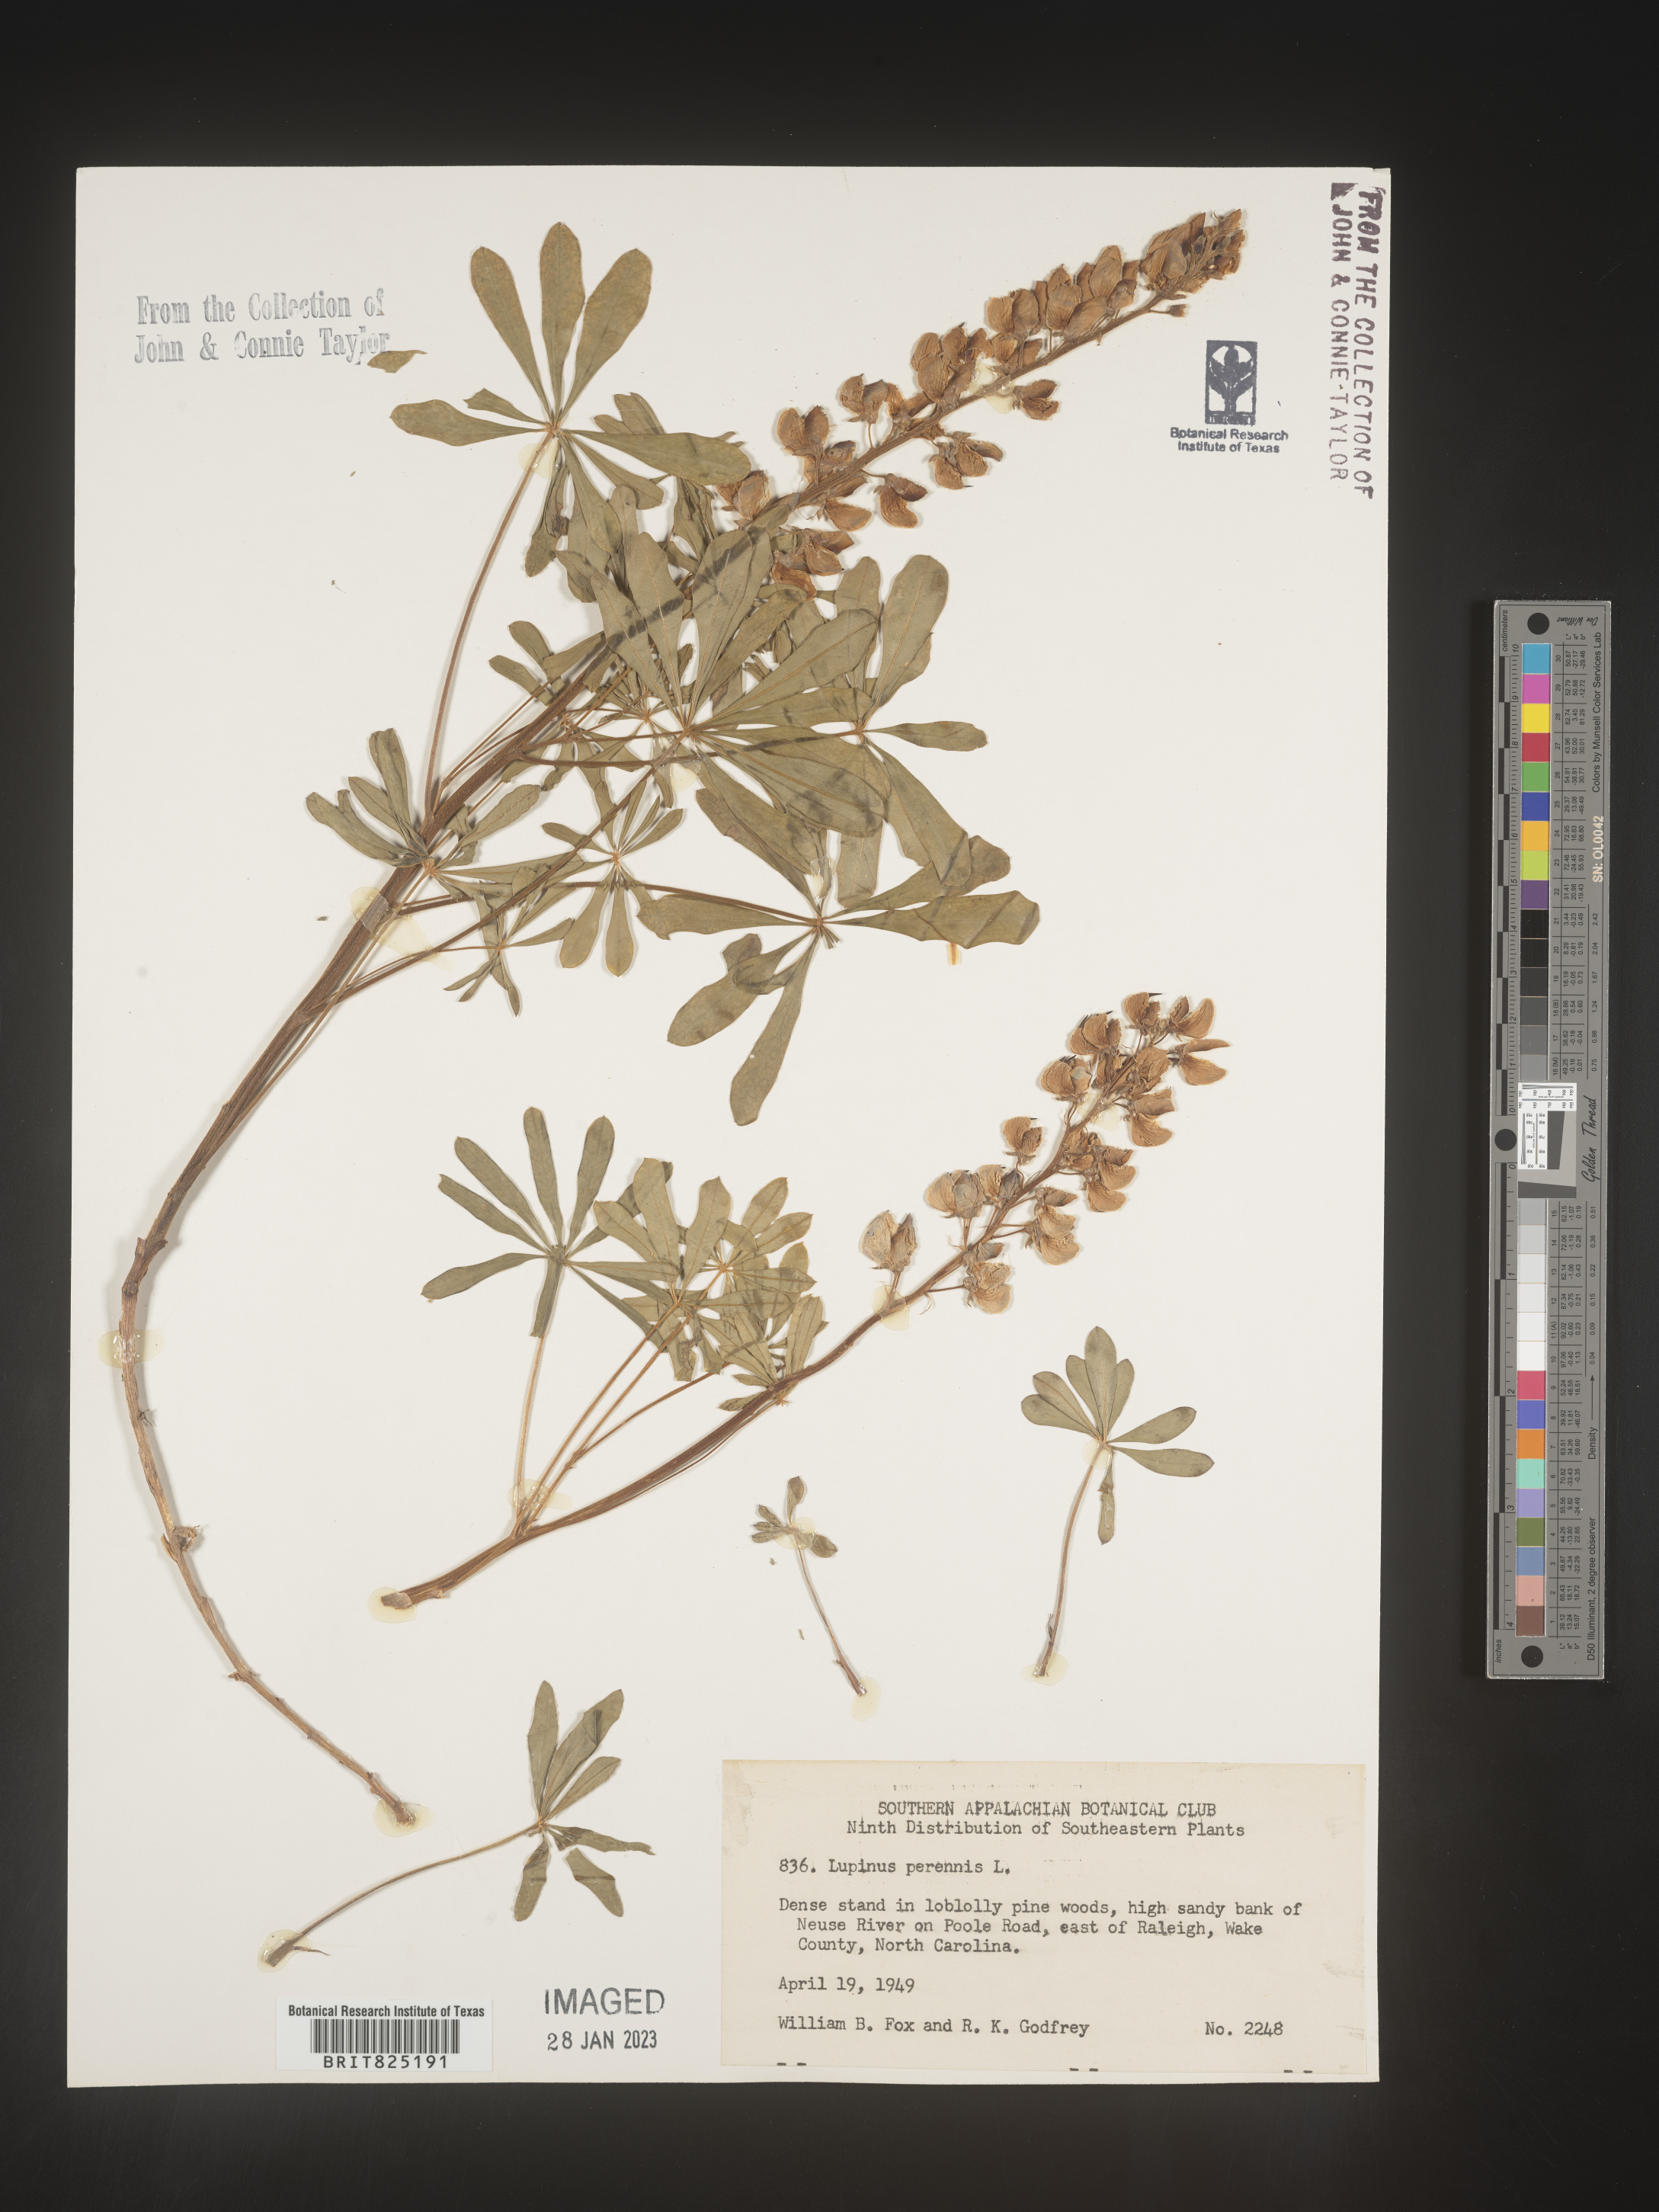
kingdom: Plantae
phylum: Tracheophyta
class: Magnoliopsida
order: Fabales
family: Fabaceae
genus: Lupinus
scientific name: Lupinus perennis
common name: Sundial lupine
